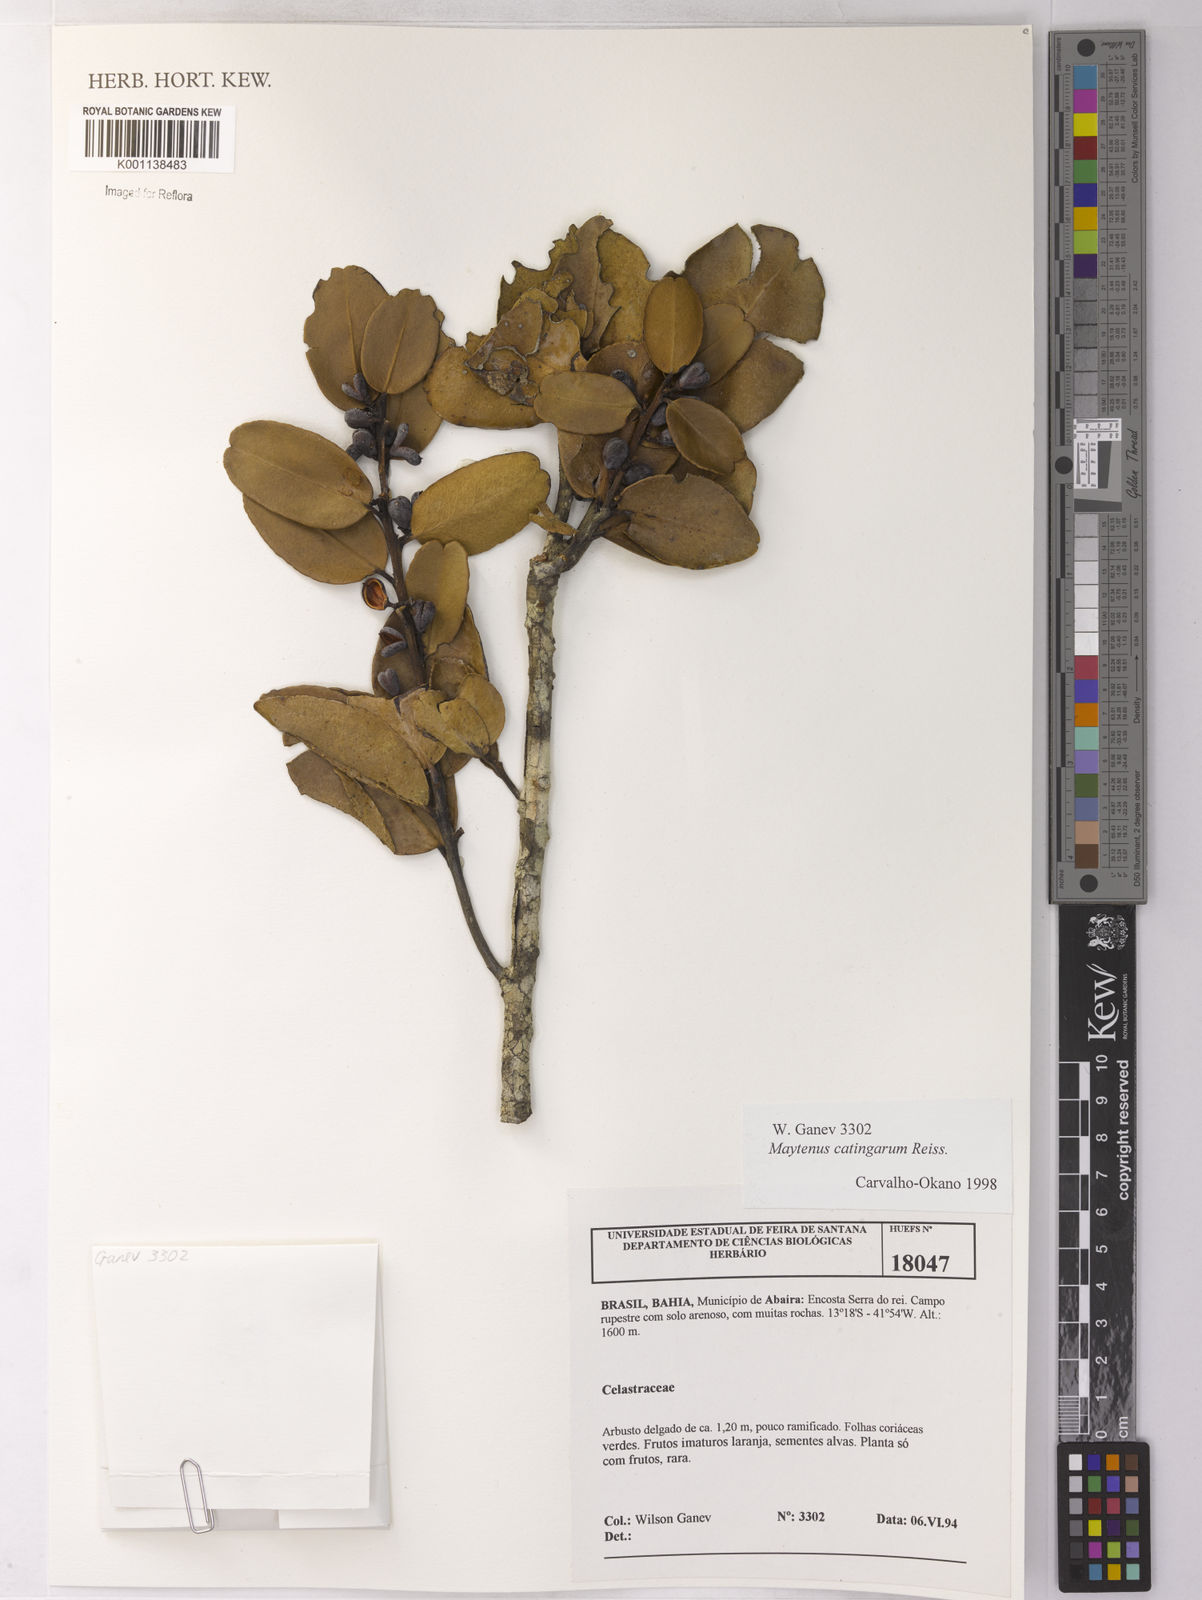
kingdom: Plantae
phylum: Tracheophyta
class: Magnoliopsida
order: Celastrales
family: Celastraceae
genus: Monteverdia
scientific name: Monteverdia catingarum
